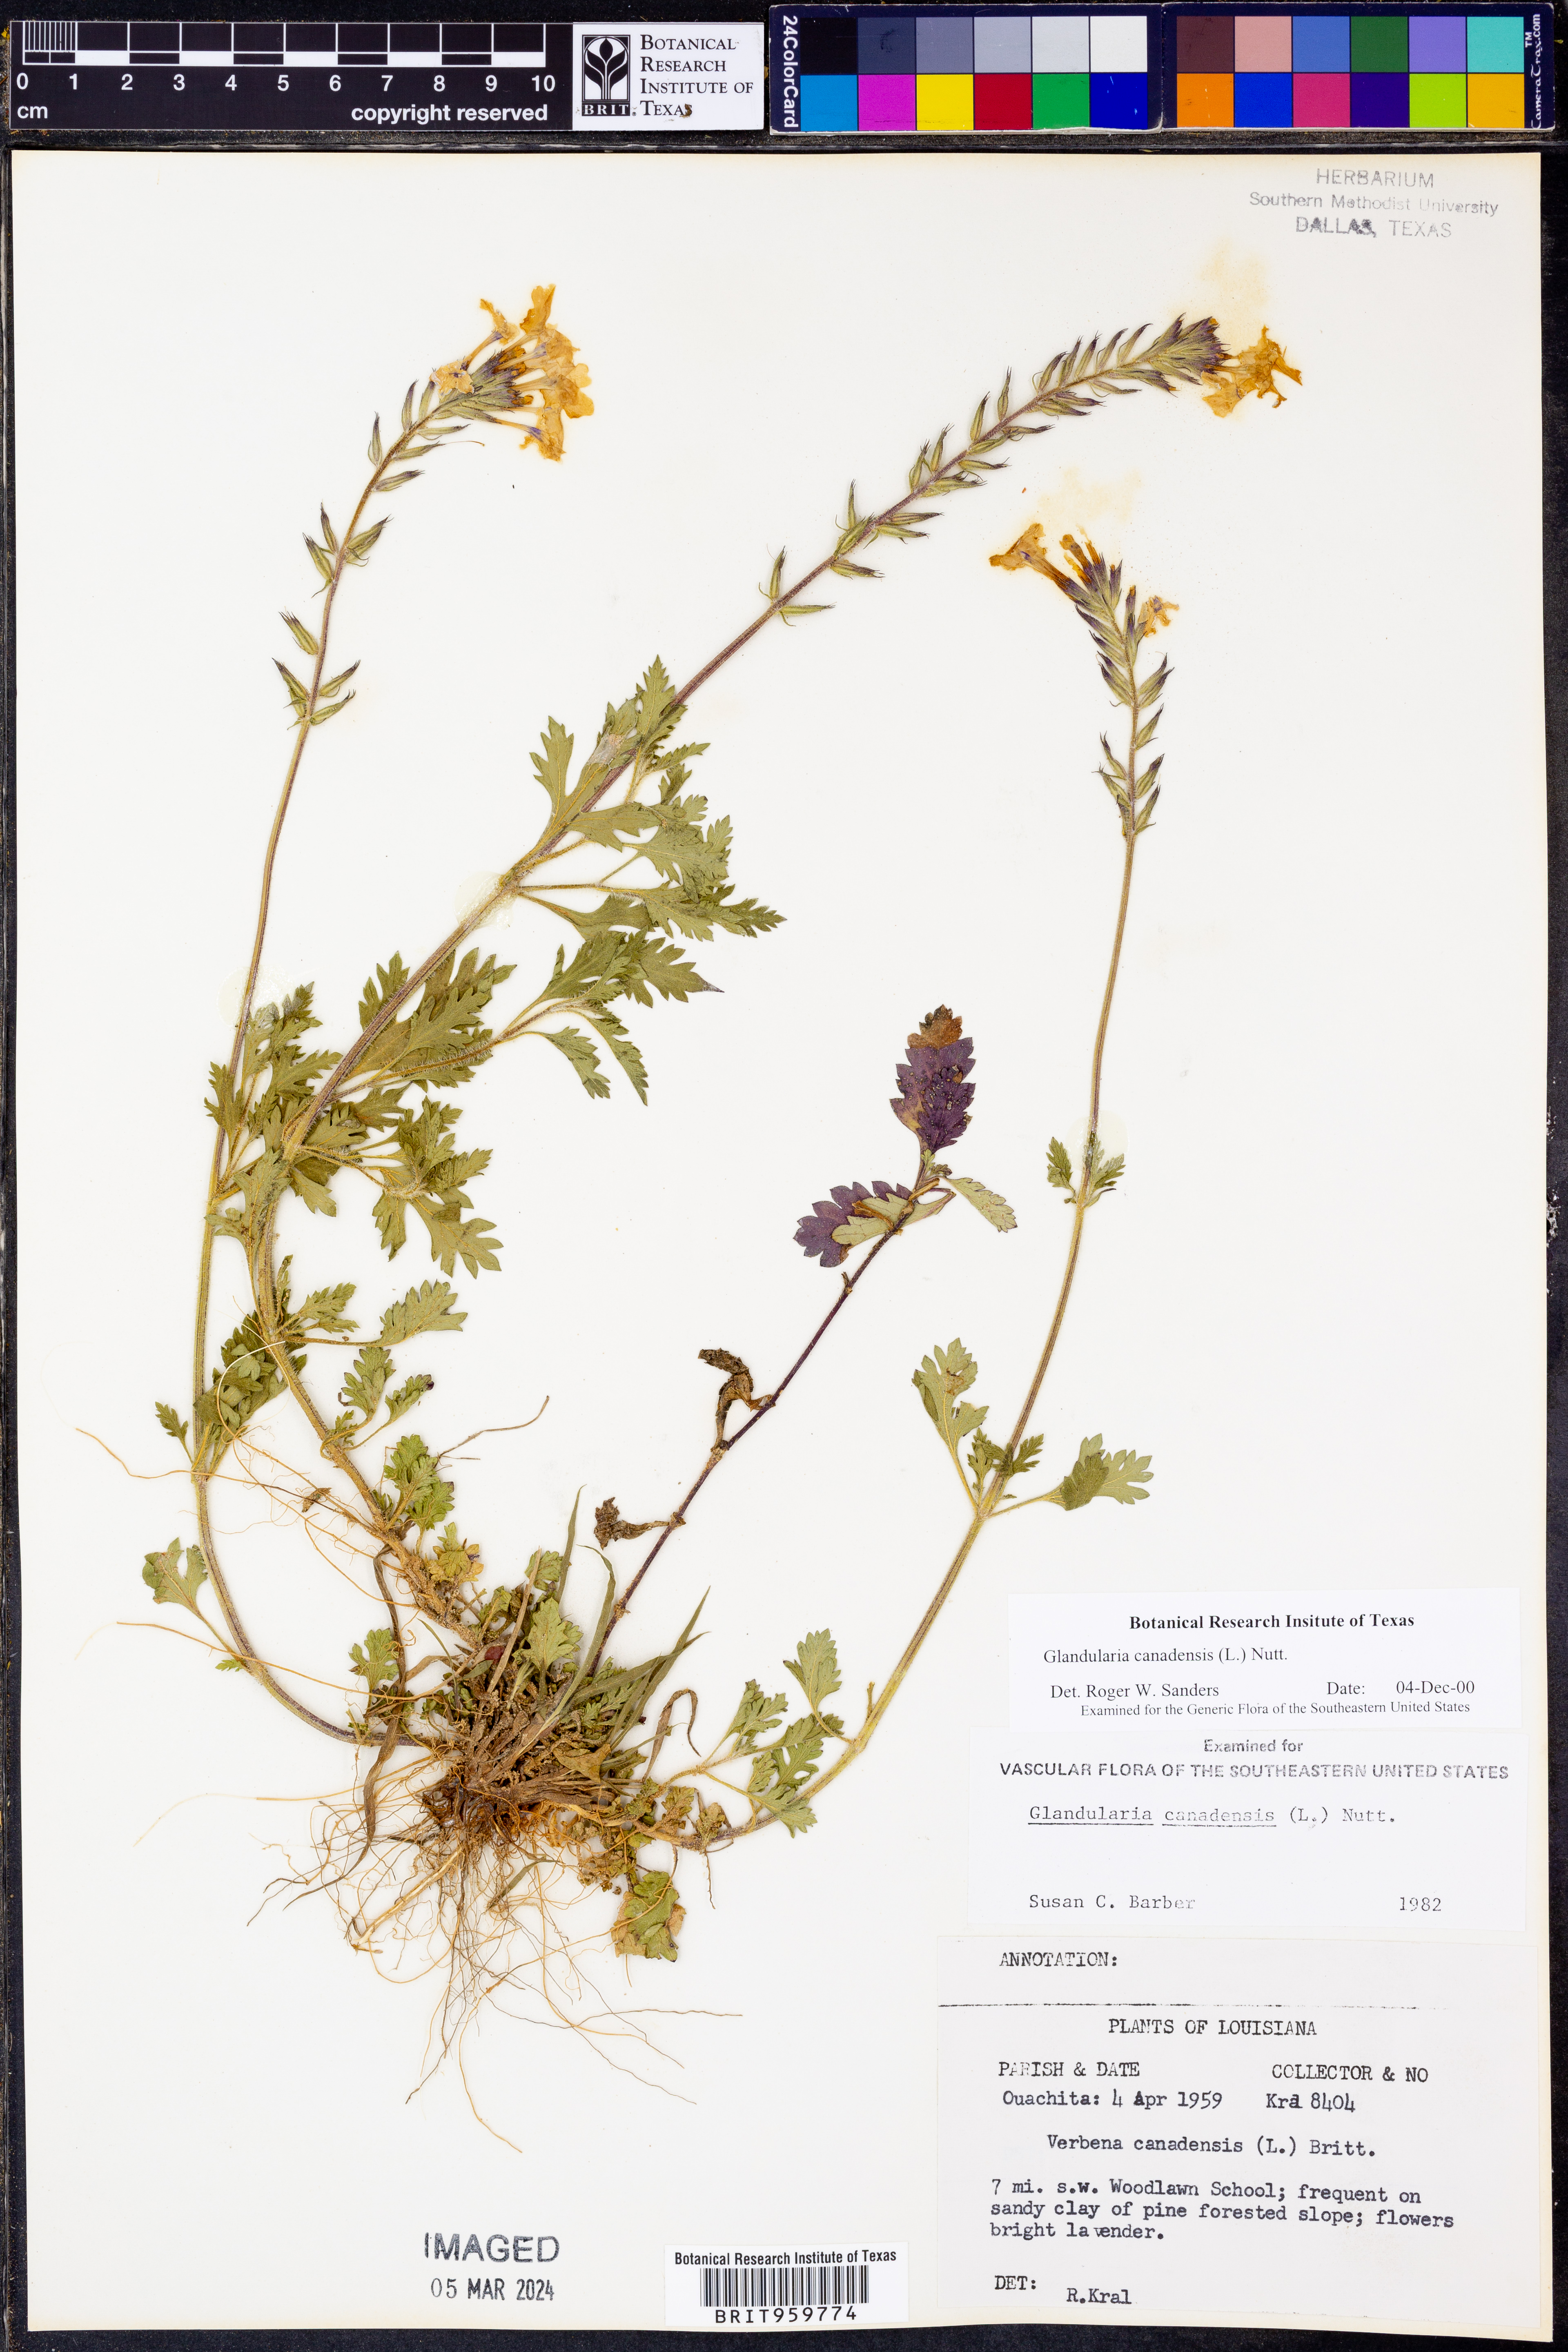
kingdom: Plantae
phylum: Tracheophyta
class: Magnoliopsida
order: Lamiales
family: Verbenaceae
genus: Verbena
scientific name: Verbena canadensis
